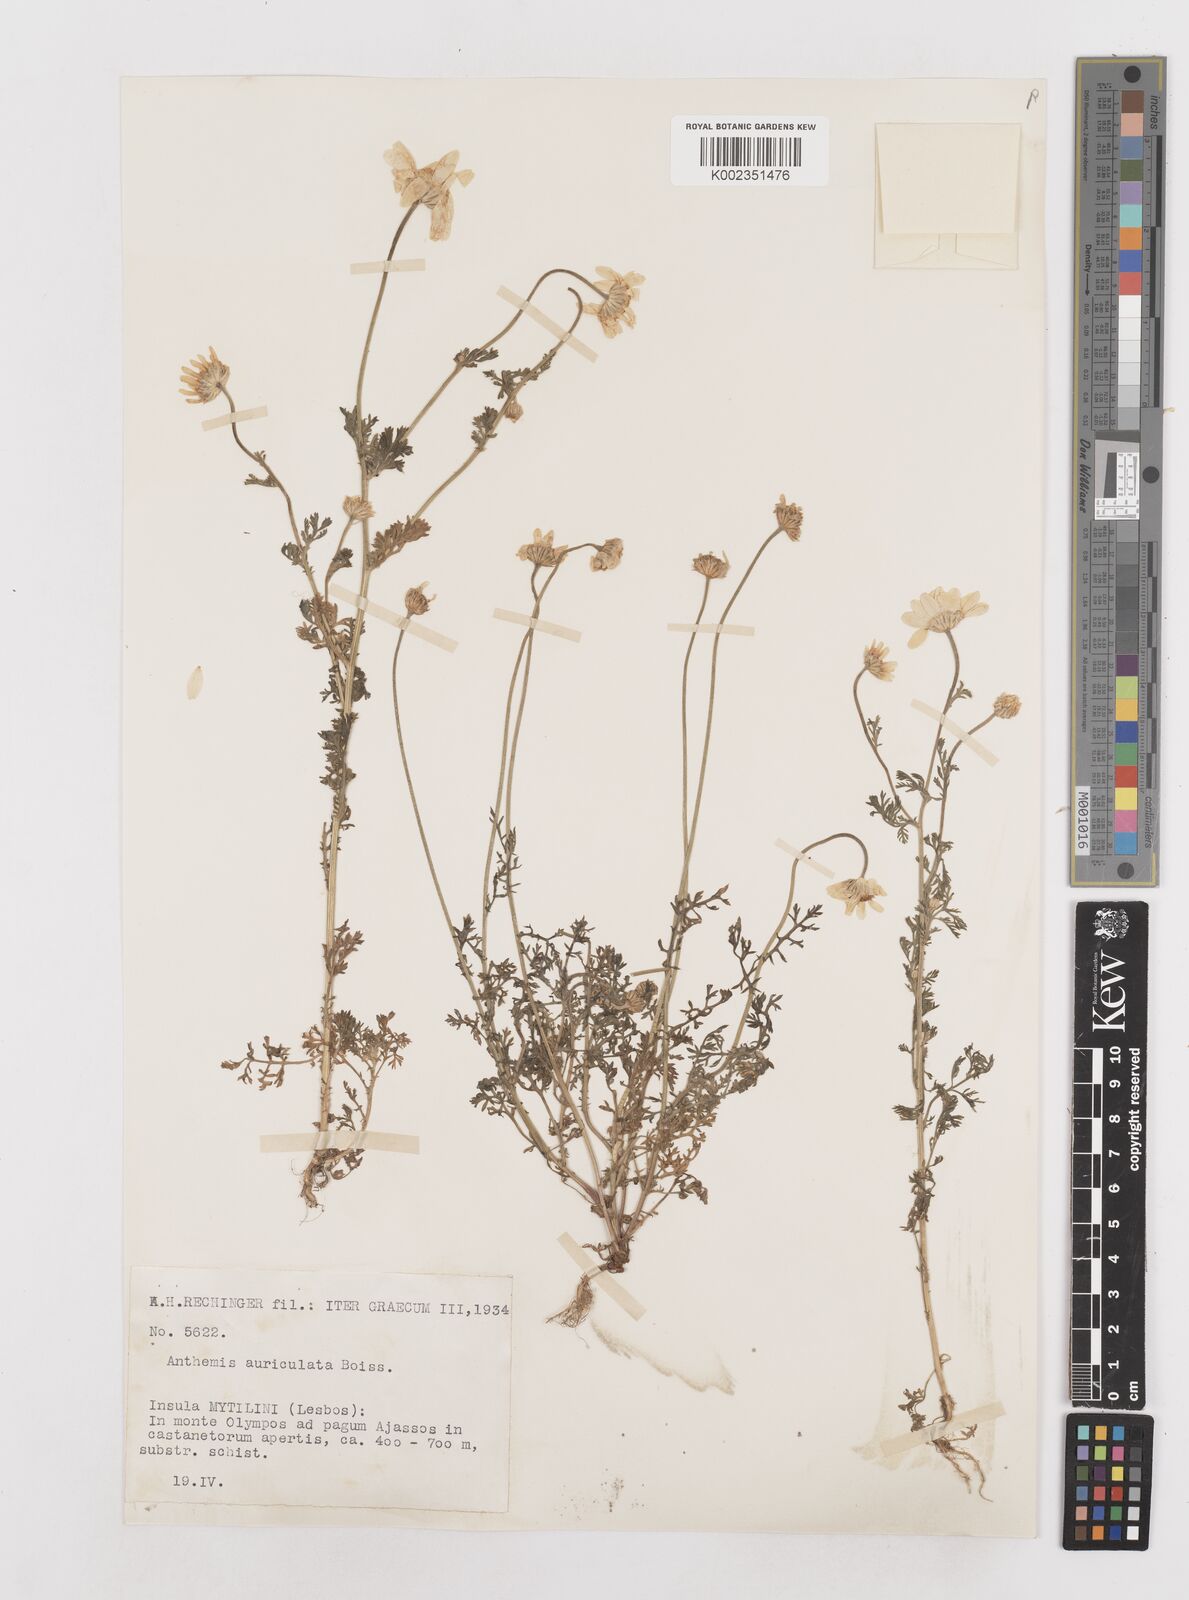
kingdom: Plantae
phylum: Tracheophyta
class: Magnoliopsida
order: Asterales
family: Asteraceae
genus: Anthemis
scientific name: Anthemis auriculata
